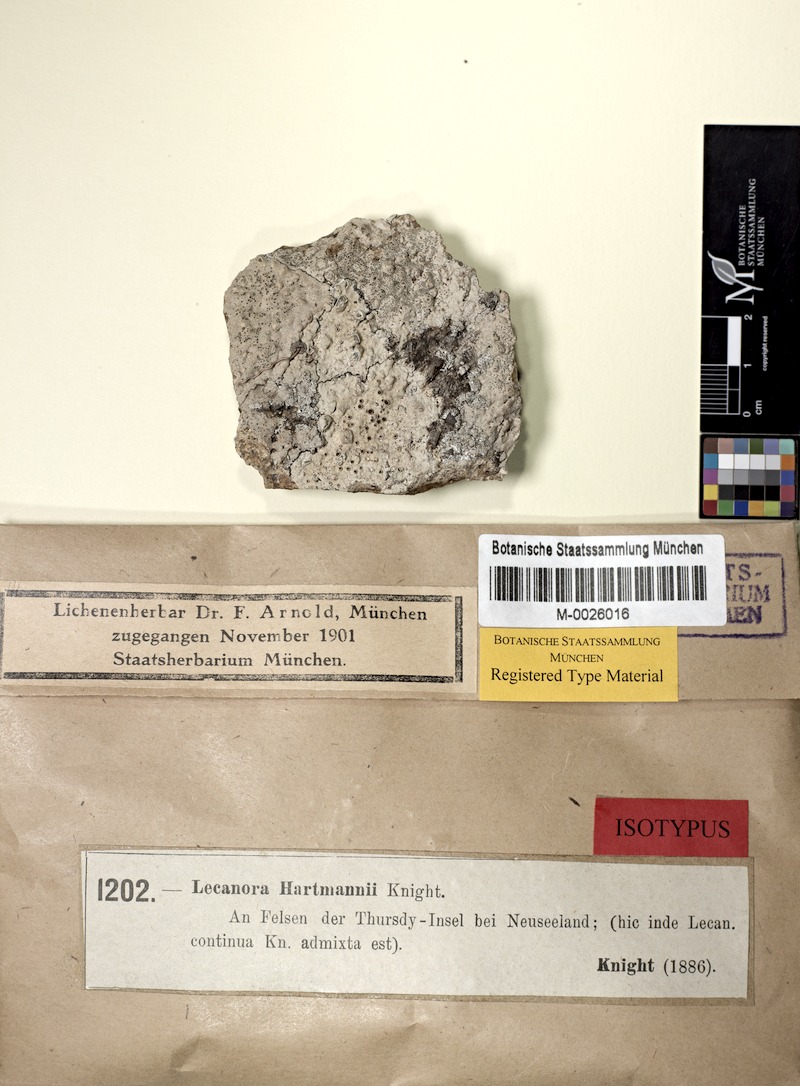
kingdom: Fungi
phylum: Ascomycota
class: Lecanoromycetes
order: Lecanorales
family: Lecanoraceae
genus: Lecanora
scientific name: Lecanora margarodes
